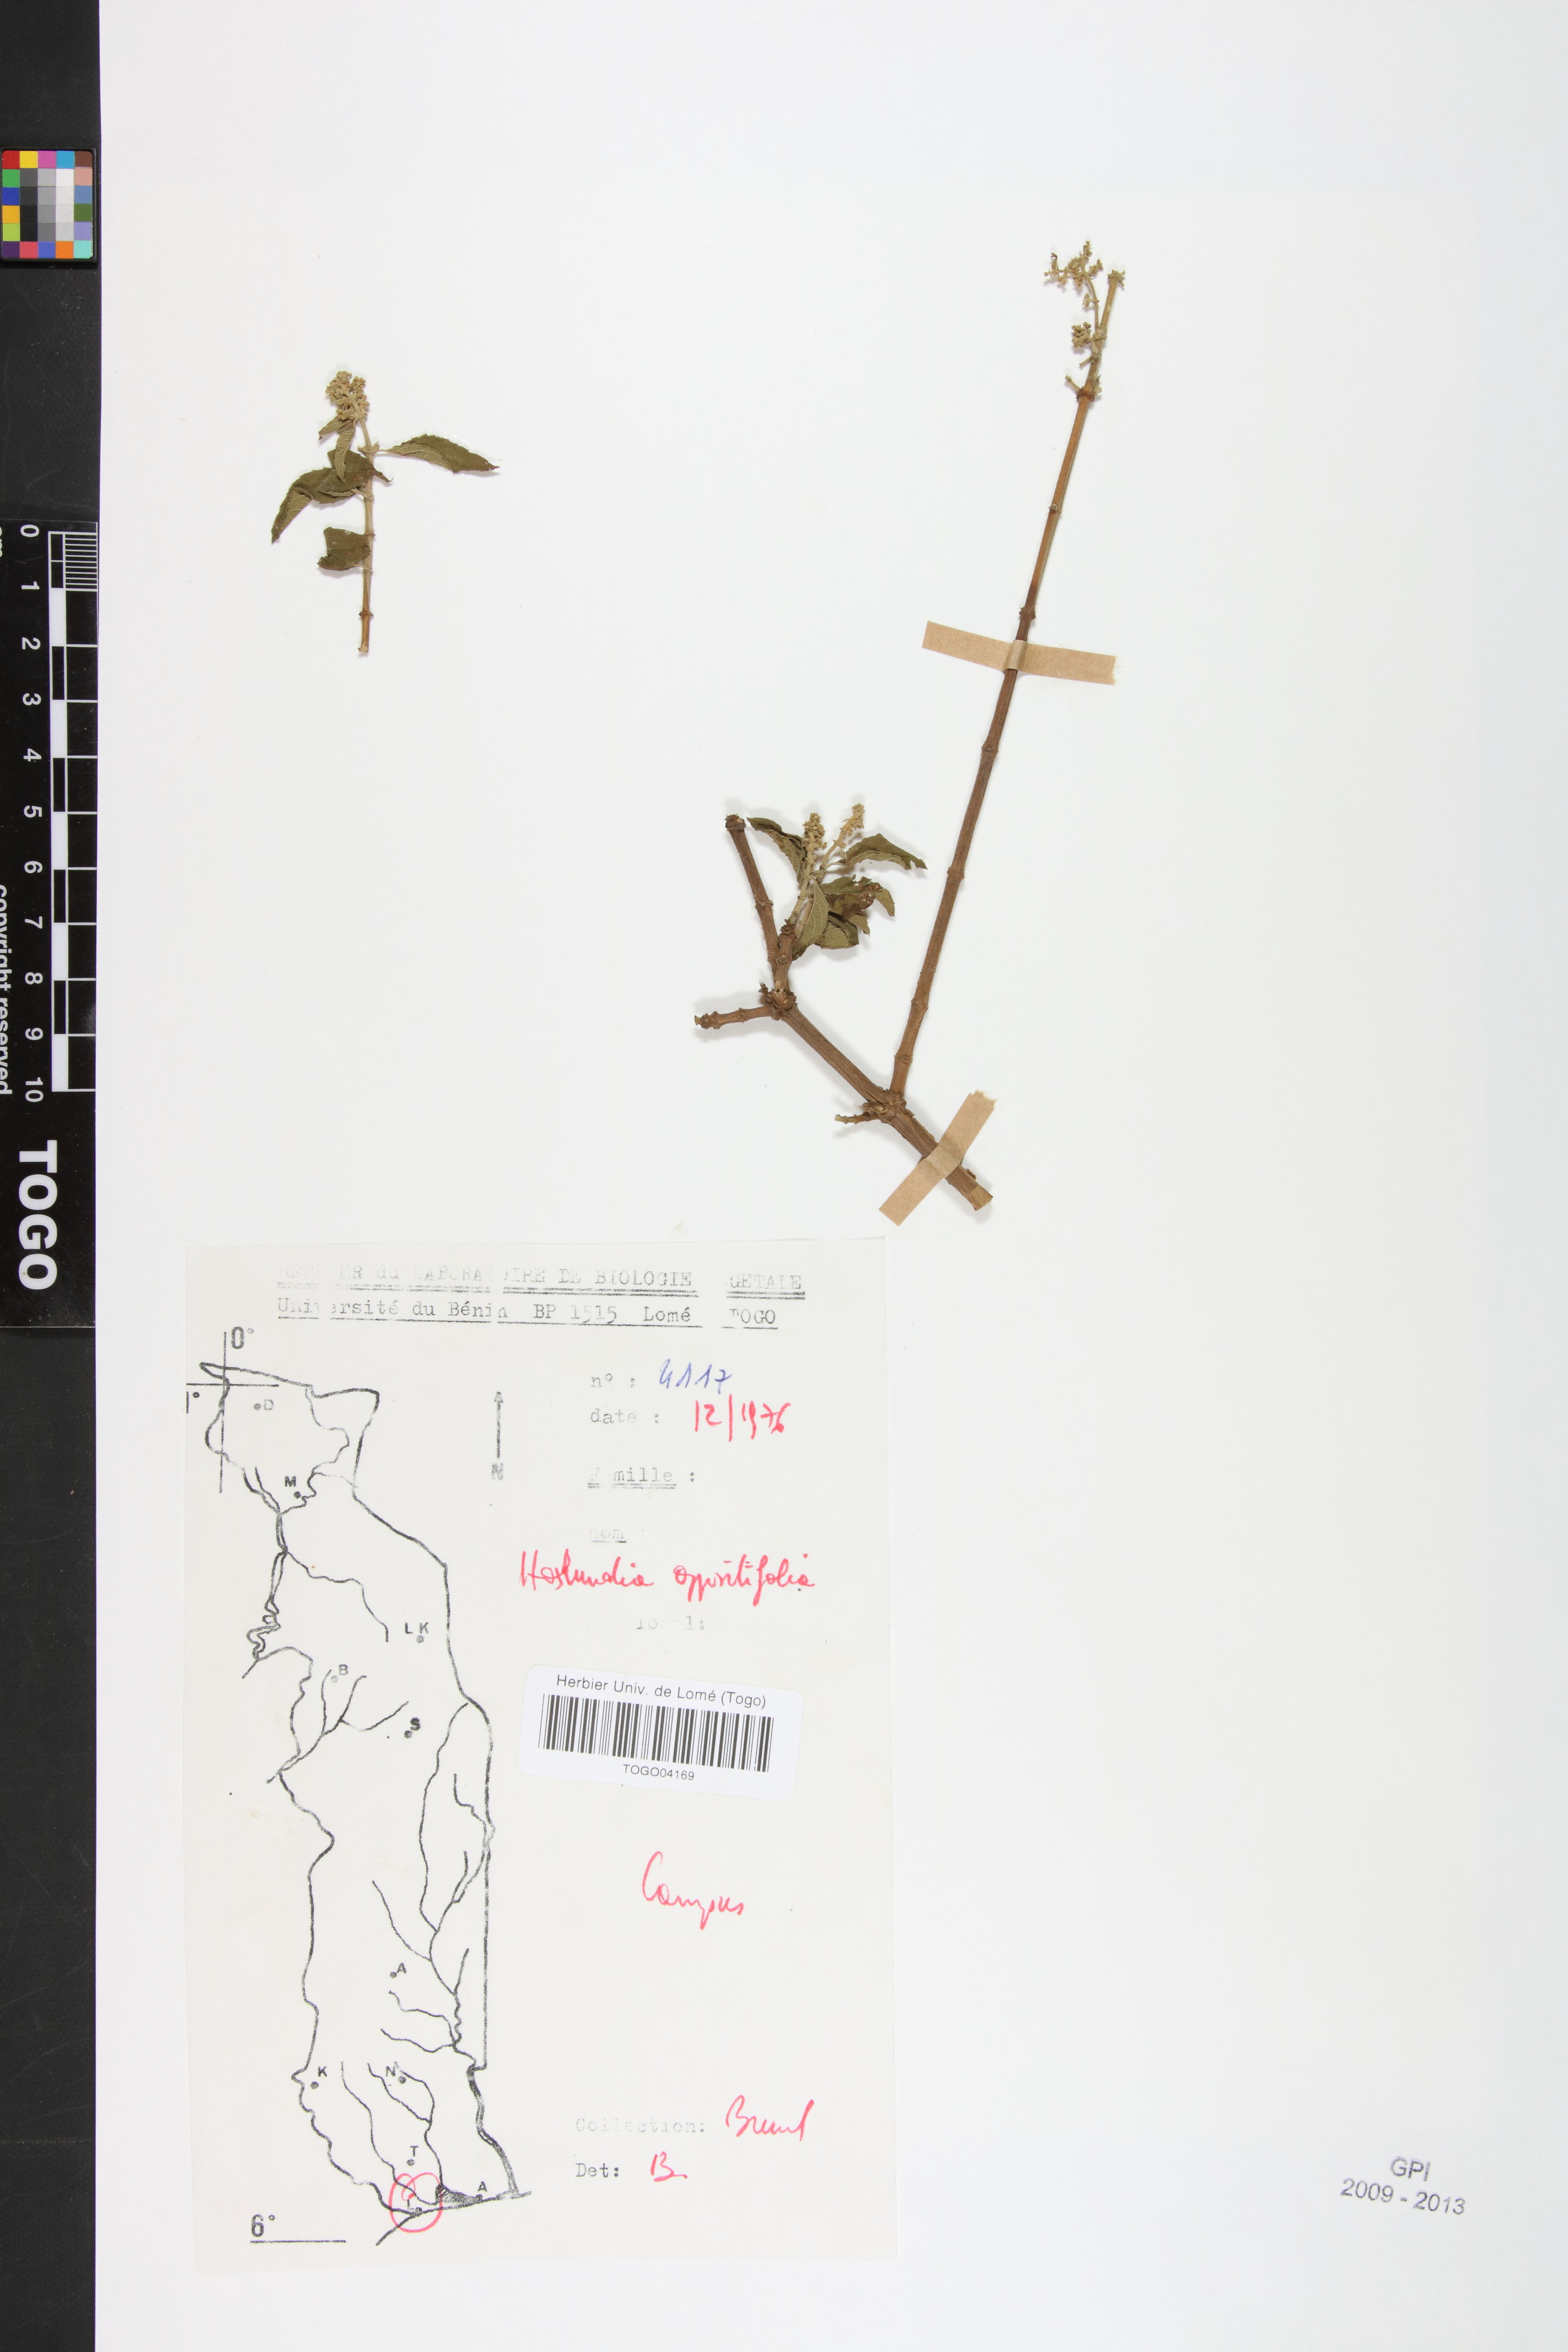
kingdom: Plantae
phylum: Tracheophyta
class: Magnoliopsida
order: Lamiales
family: Lamiaceae
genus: Hoslundia
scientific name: Hoslundia opposita
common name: Kamyuye
